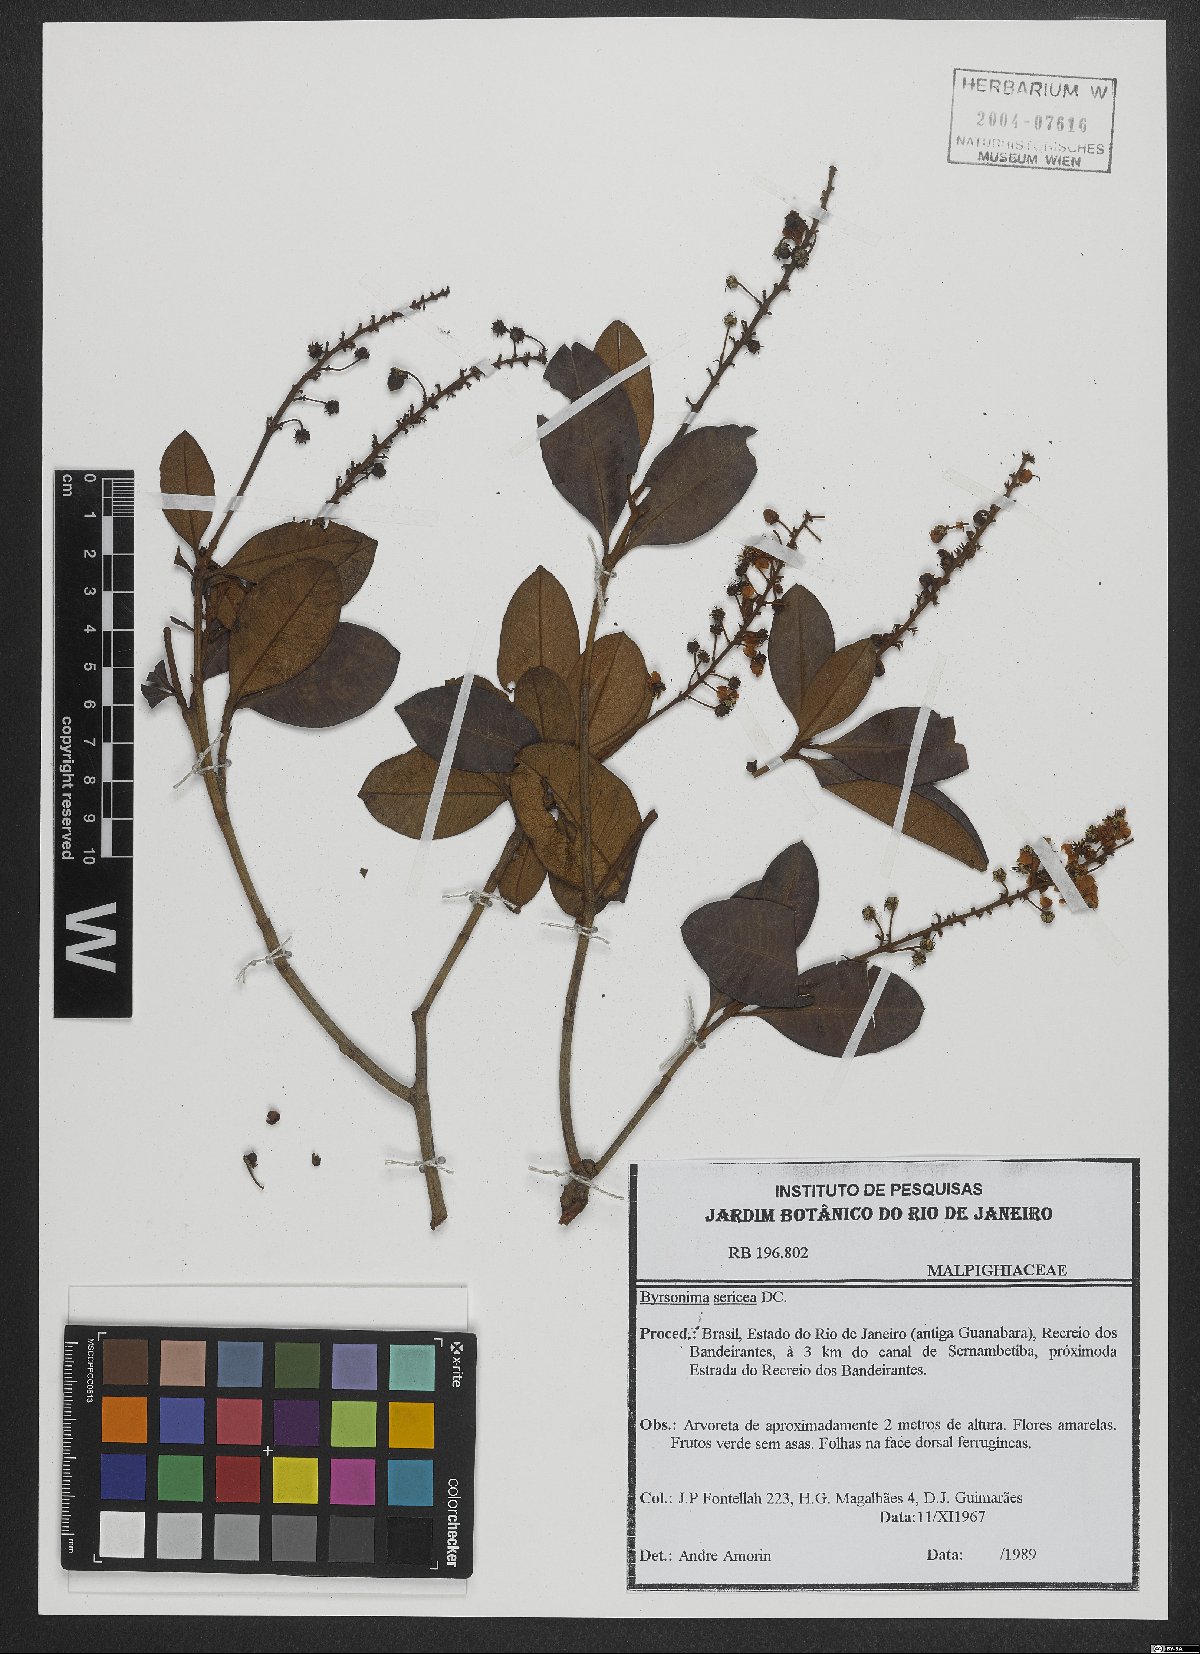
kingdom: Plantae
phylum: Tracheophyta
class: Magnoliopsida
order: Malpighiales
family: Malpighiaceae
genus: Byrsonima
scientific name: Byrsonima sericea
